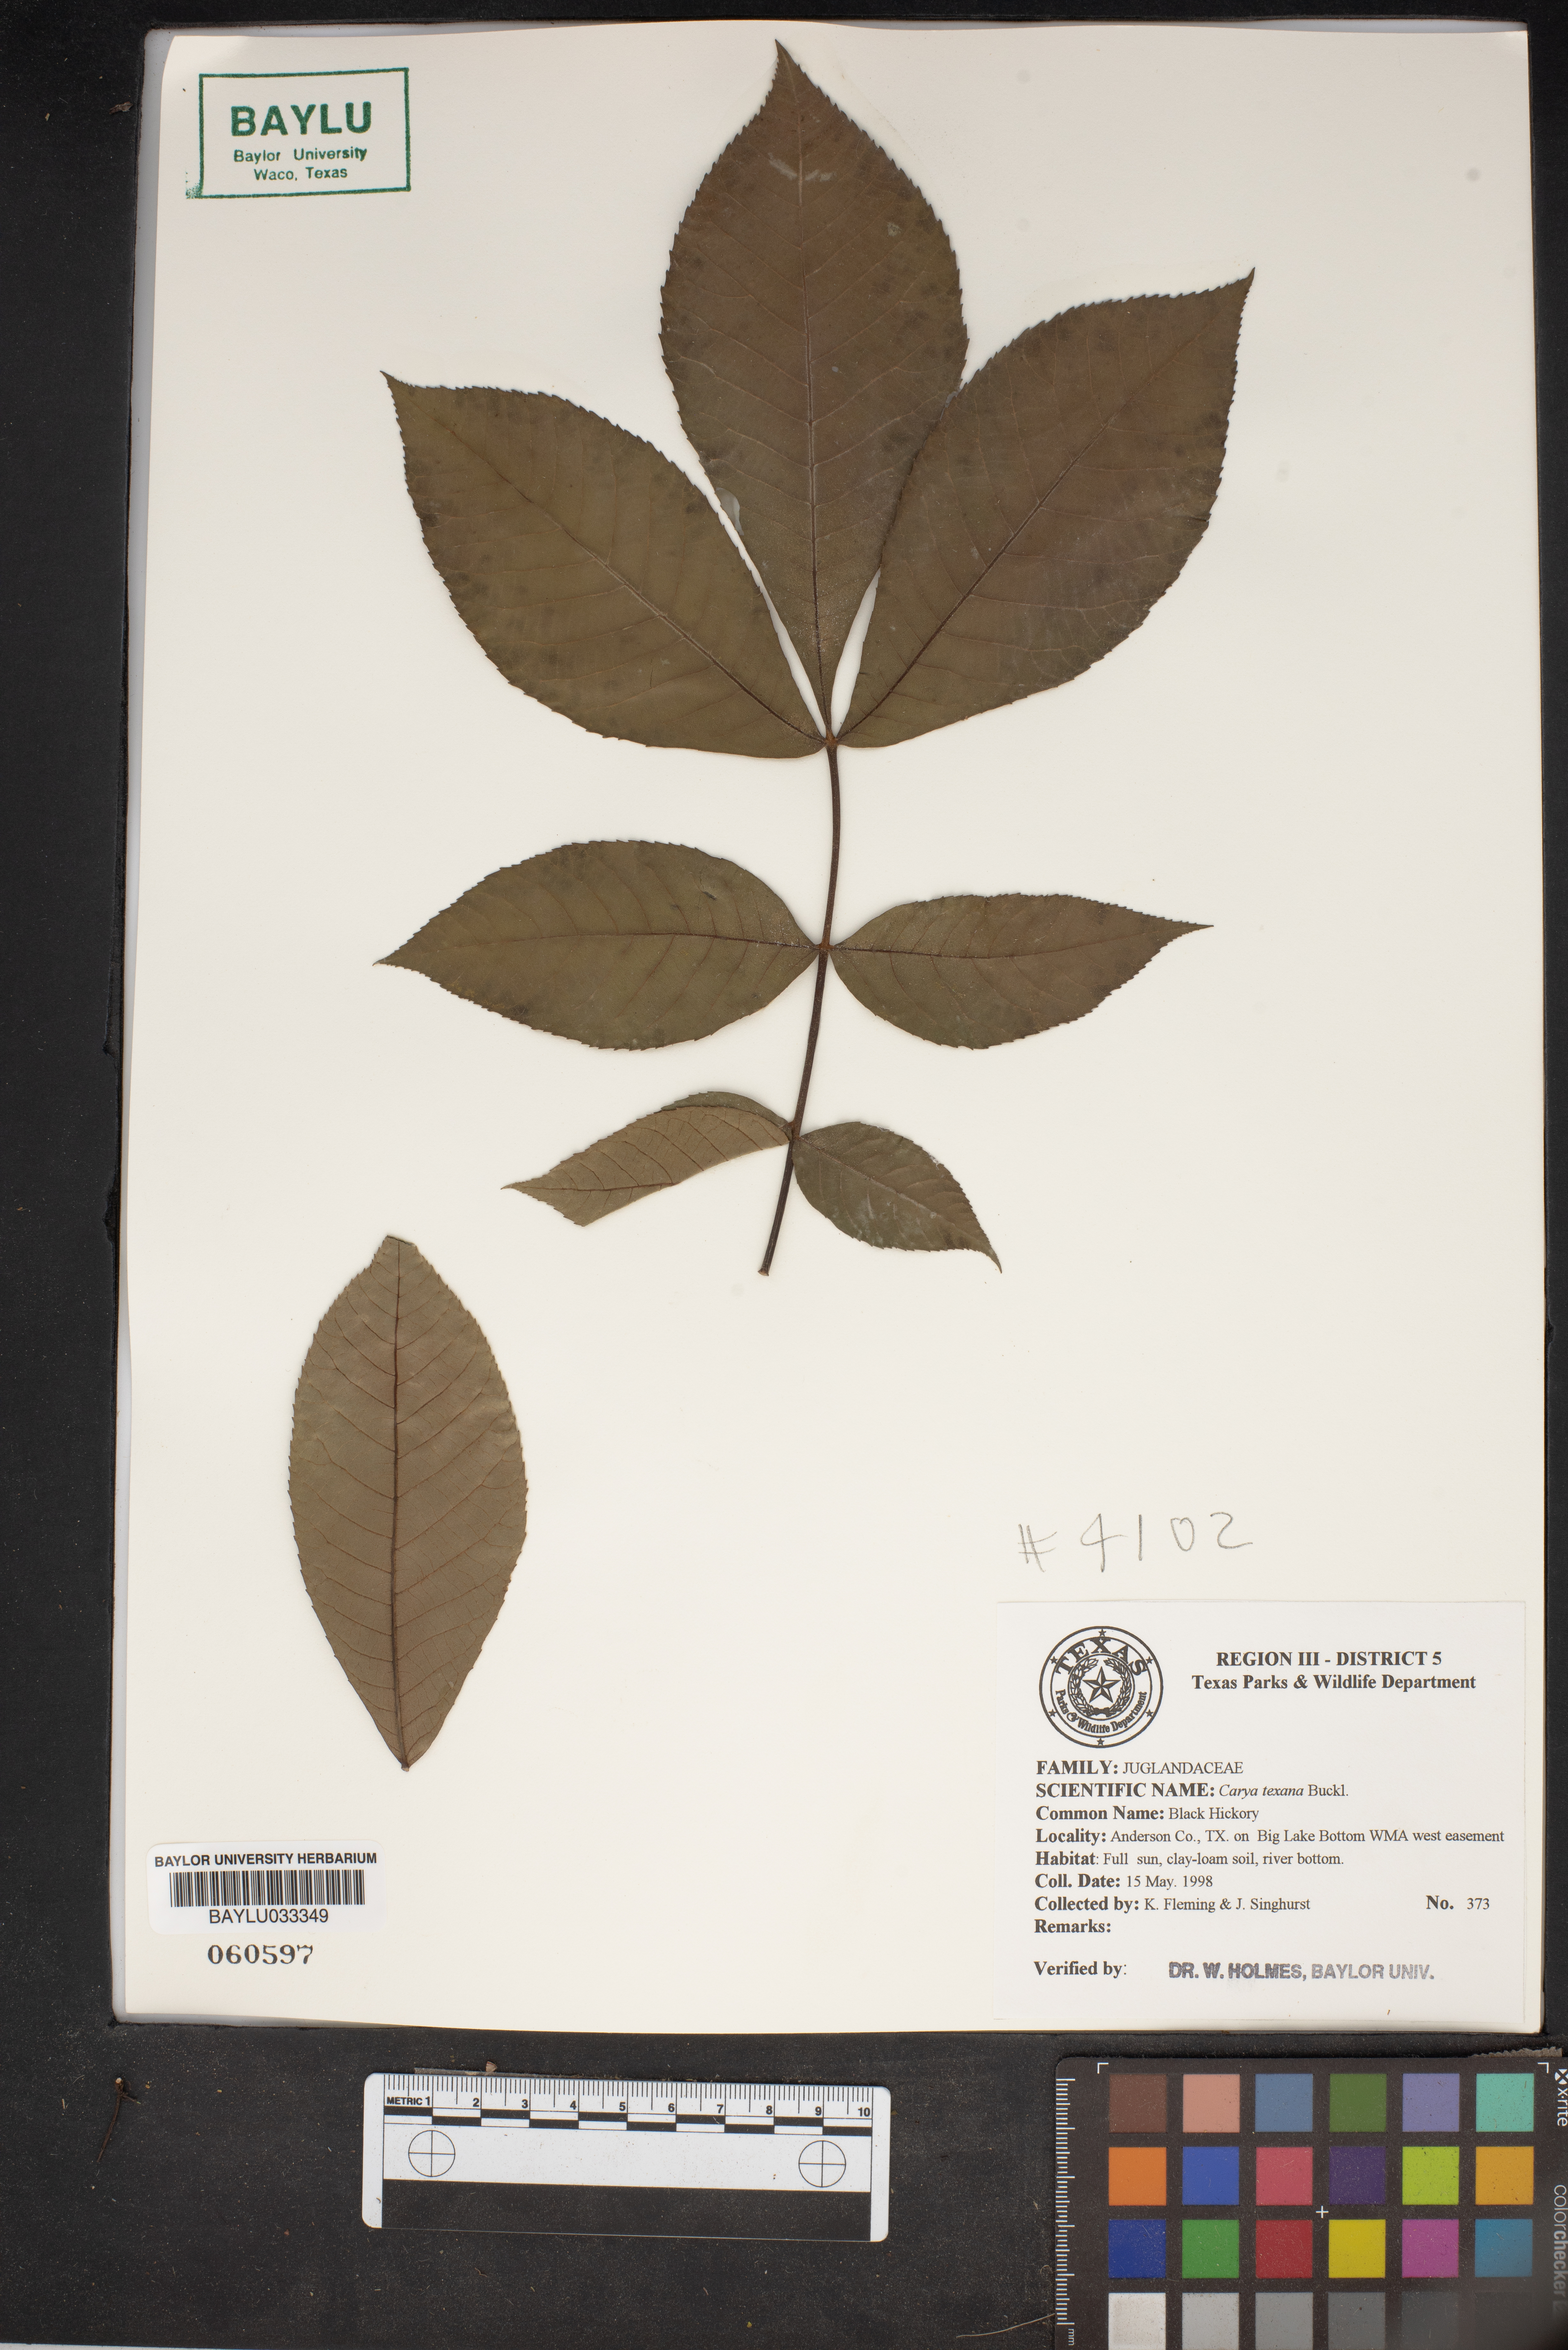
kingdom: Plantae
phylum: Tracheophyta
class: Magnoliopsida
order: Fagales
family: Juglandaceae
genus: Carya
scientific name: Carya texana
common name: Black hickory
